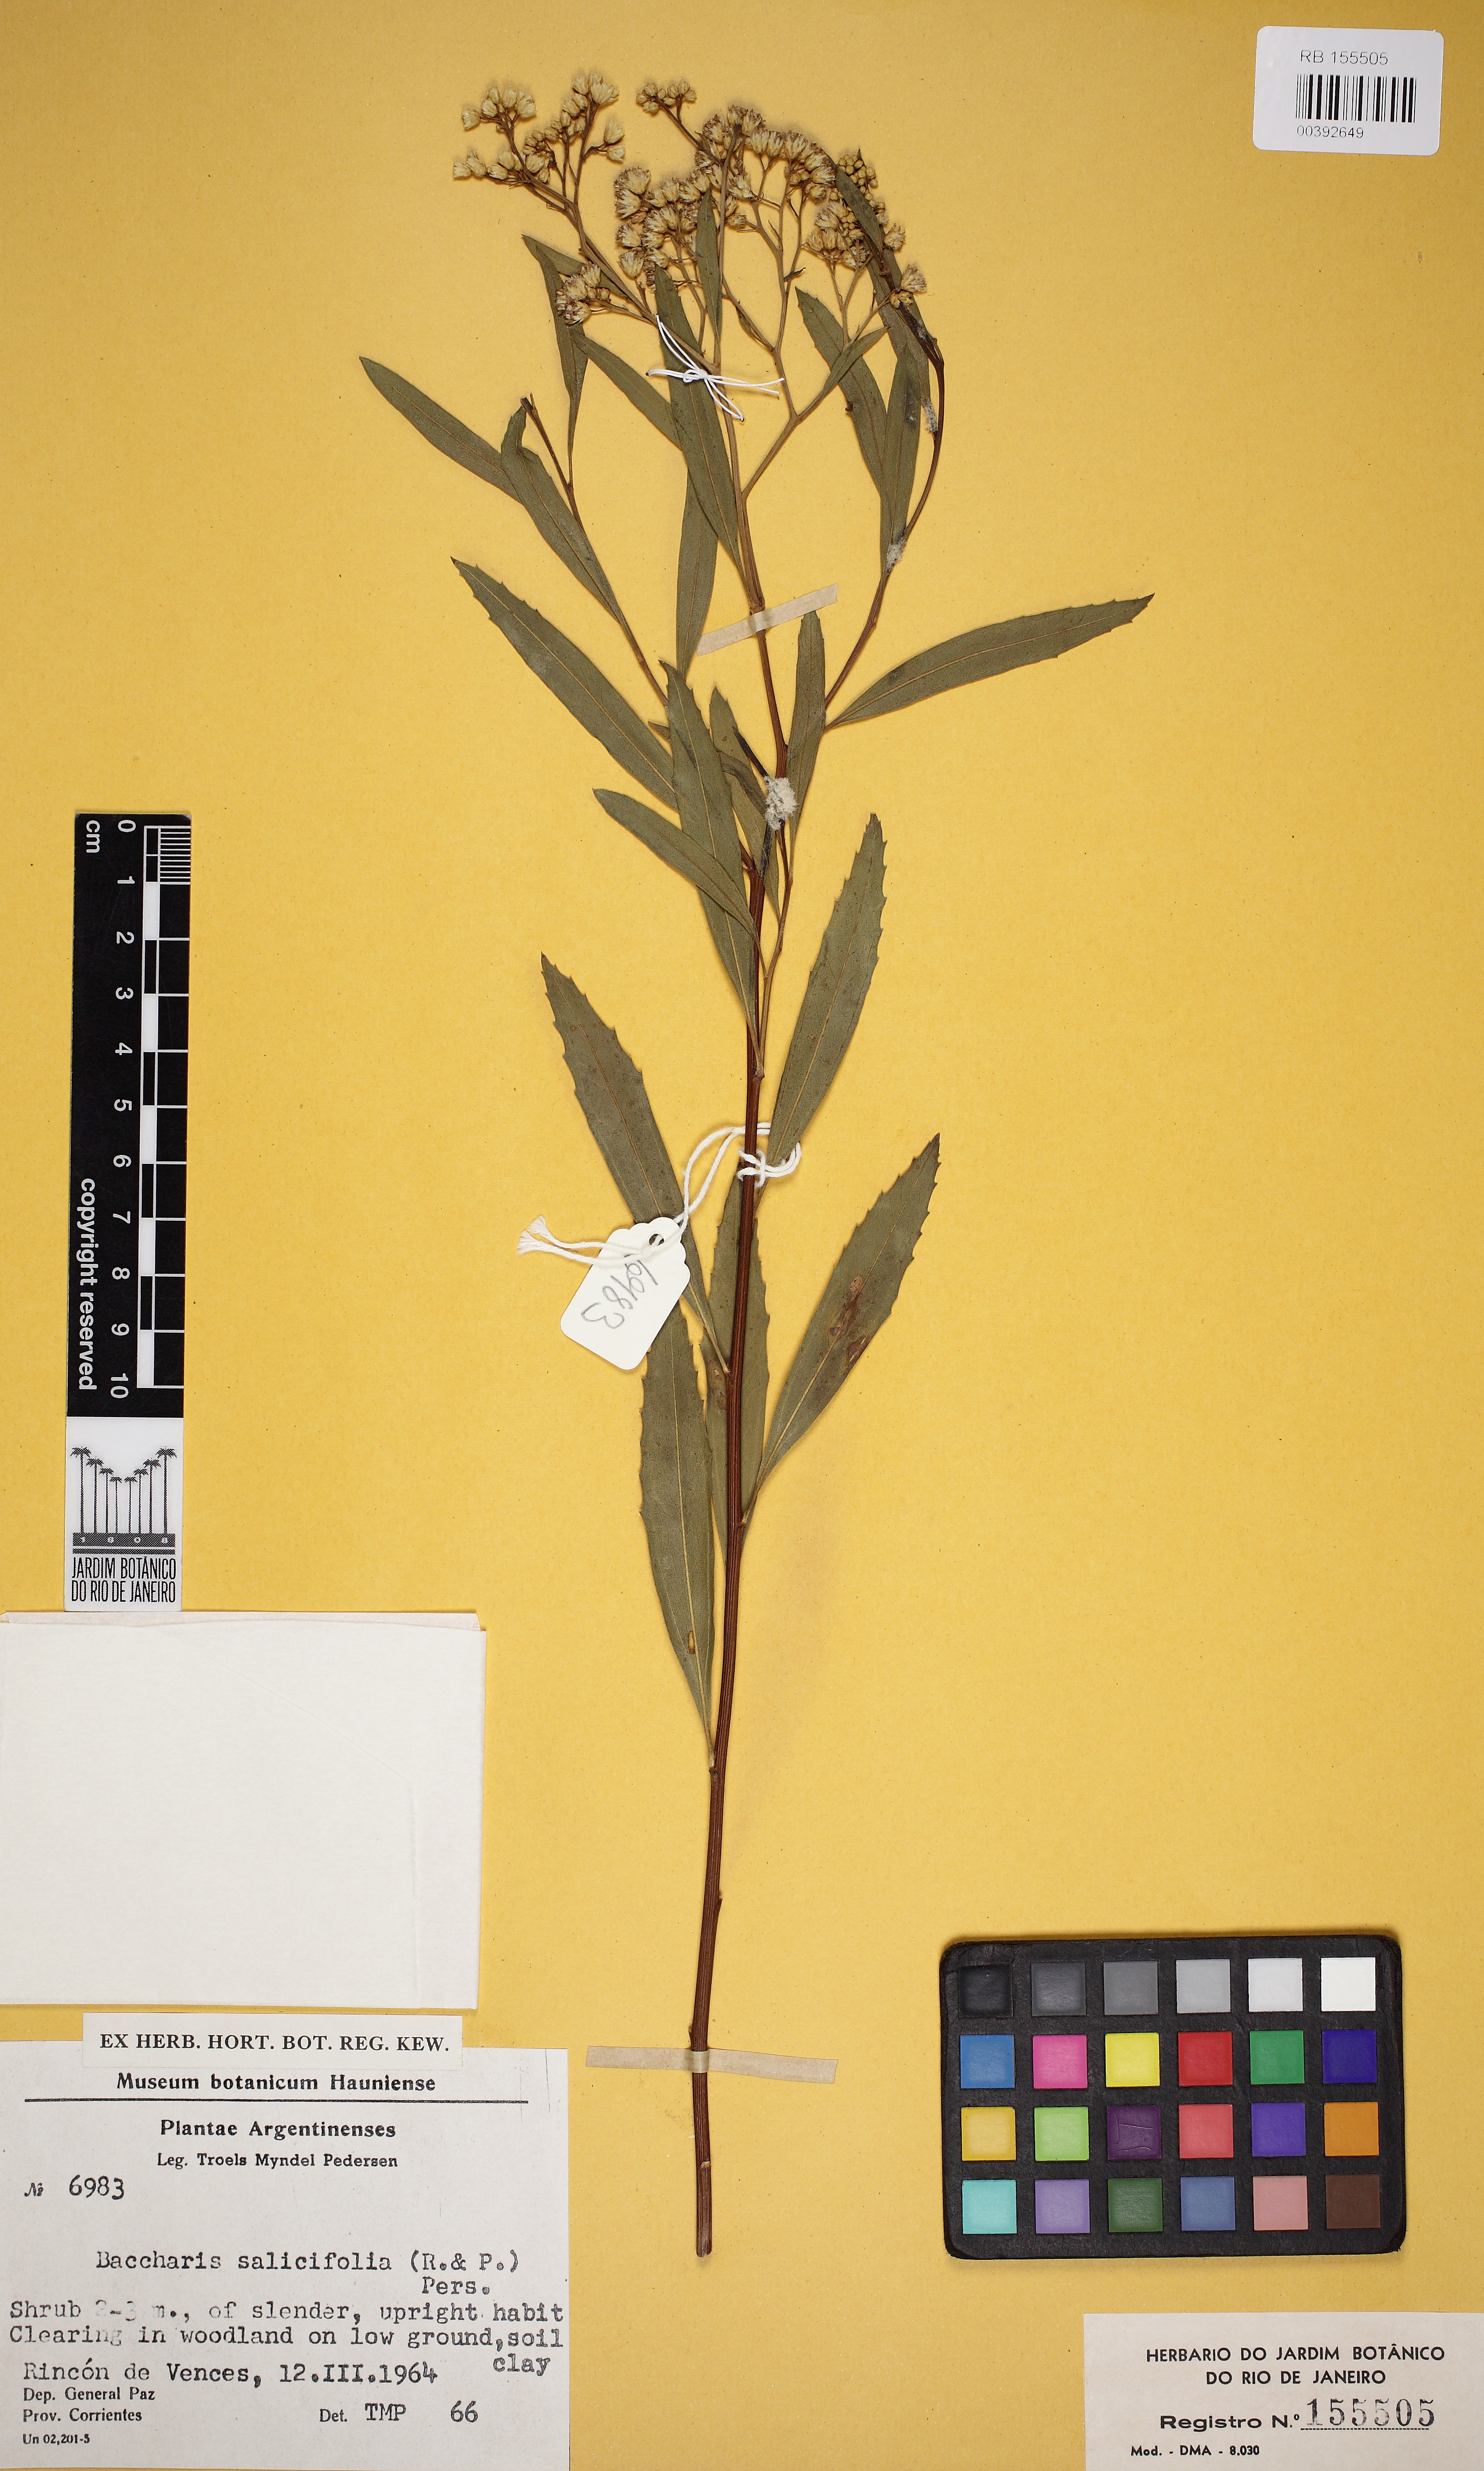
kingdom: Plantae
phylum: Tracheophyta
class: Magnoliopsida
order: Asterales
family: Asteraceae
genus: Baccharis
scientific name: Baccharis salicifolia
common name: Sticky baccharis
